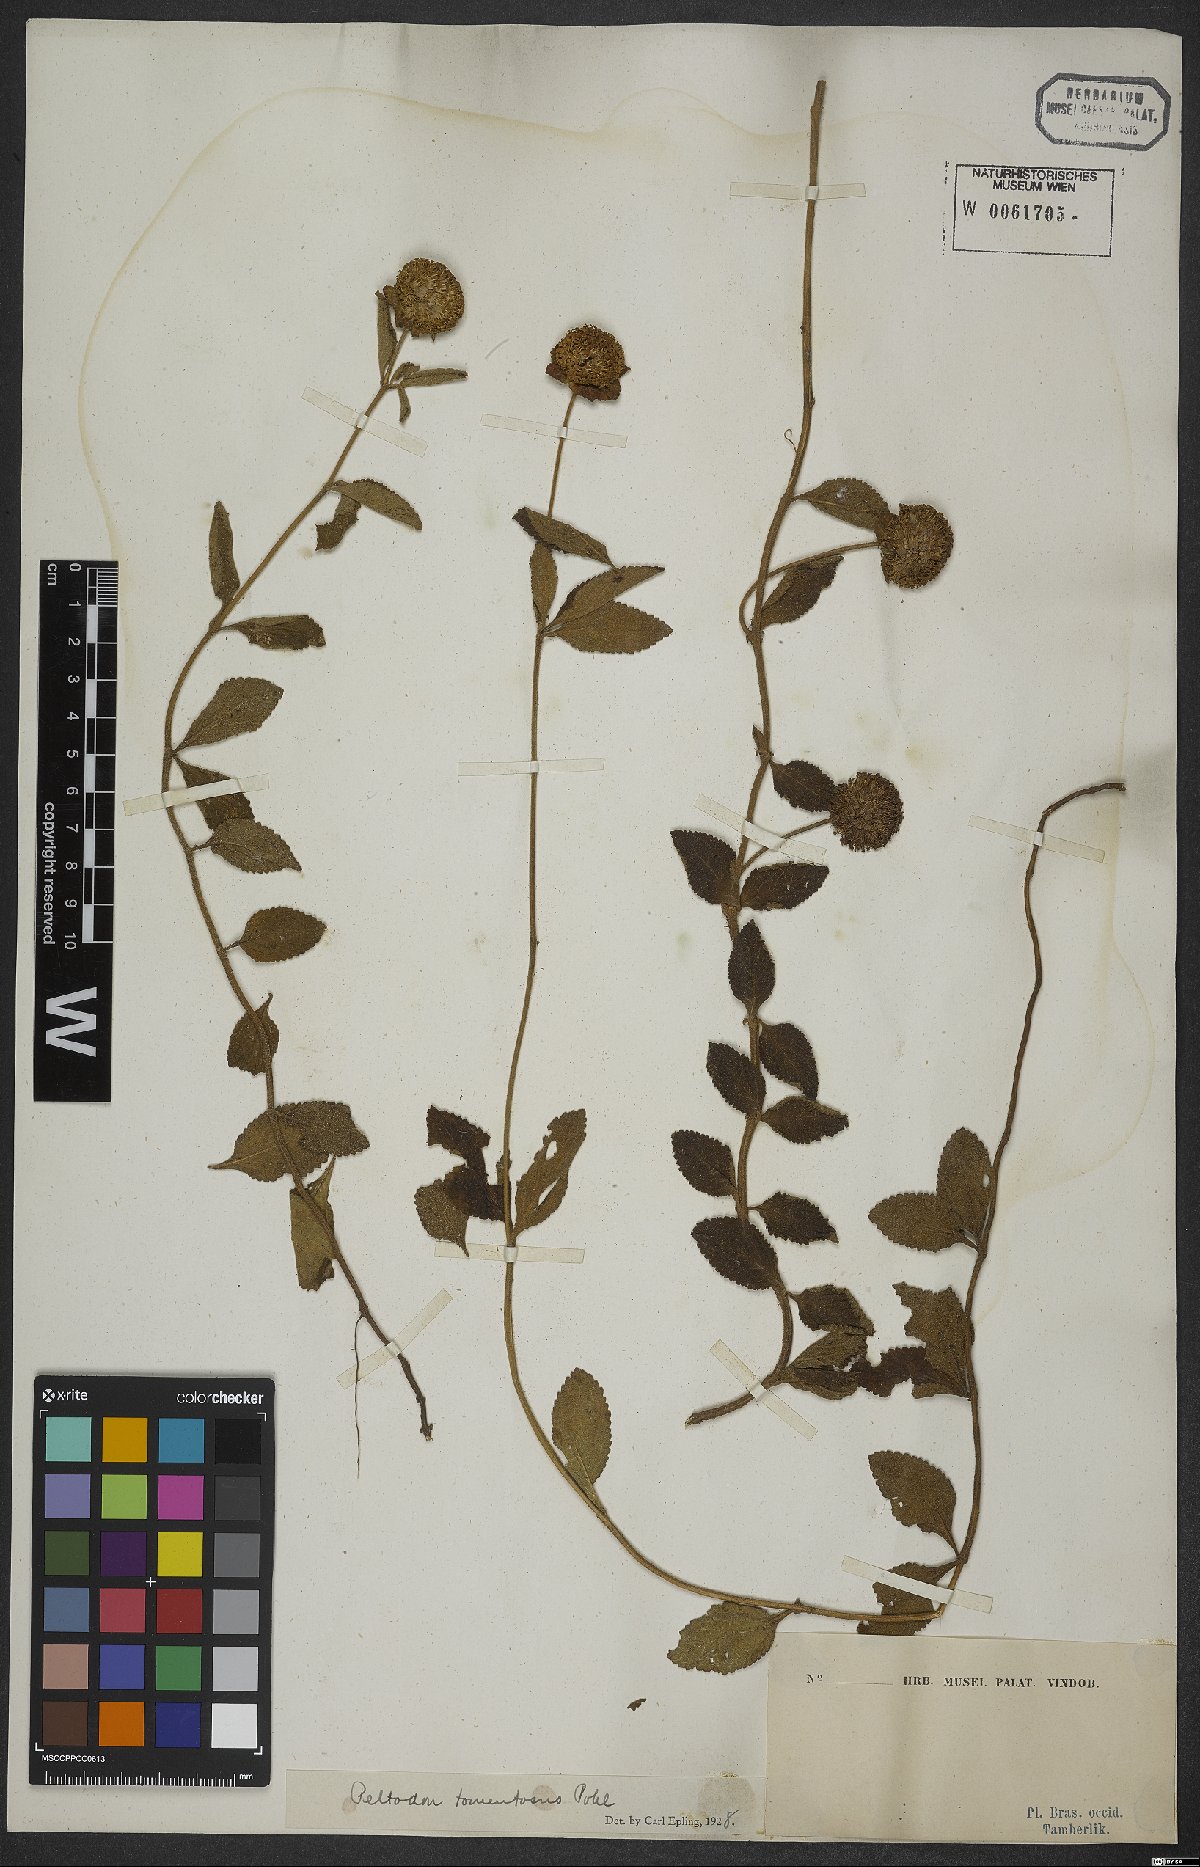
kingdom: Plantae
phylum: Tracheophyta
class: Magnoliopsida
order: Lamiales
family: Lamiaceae
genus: Hyptis
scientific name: Hyptis campestris
